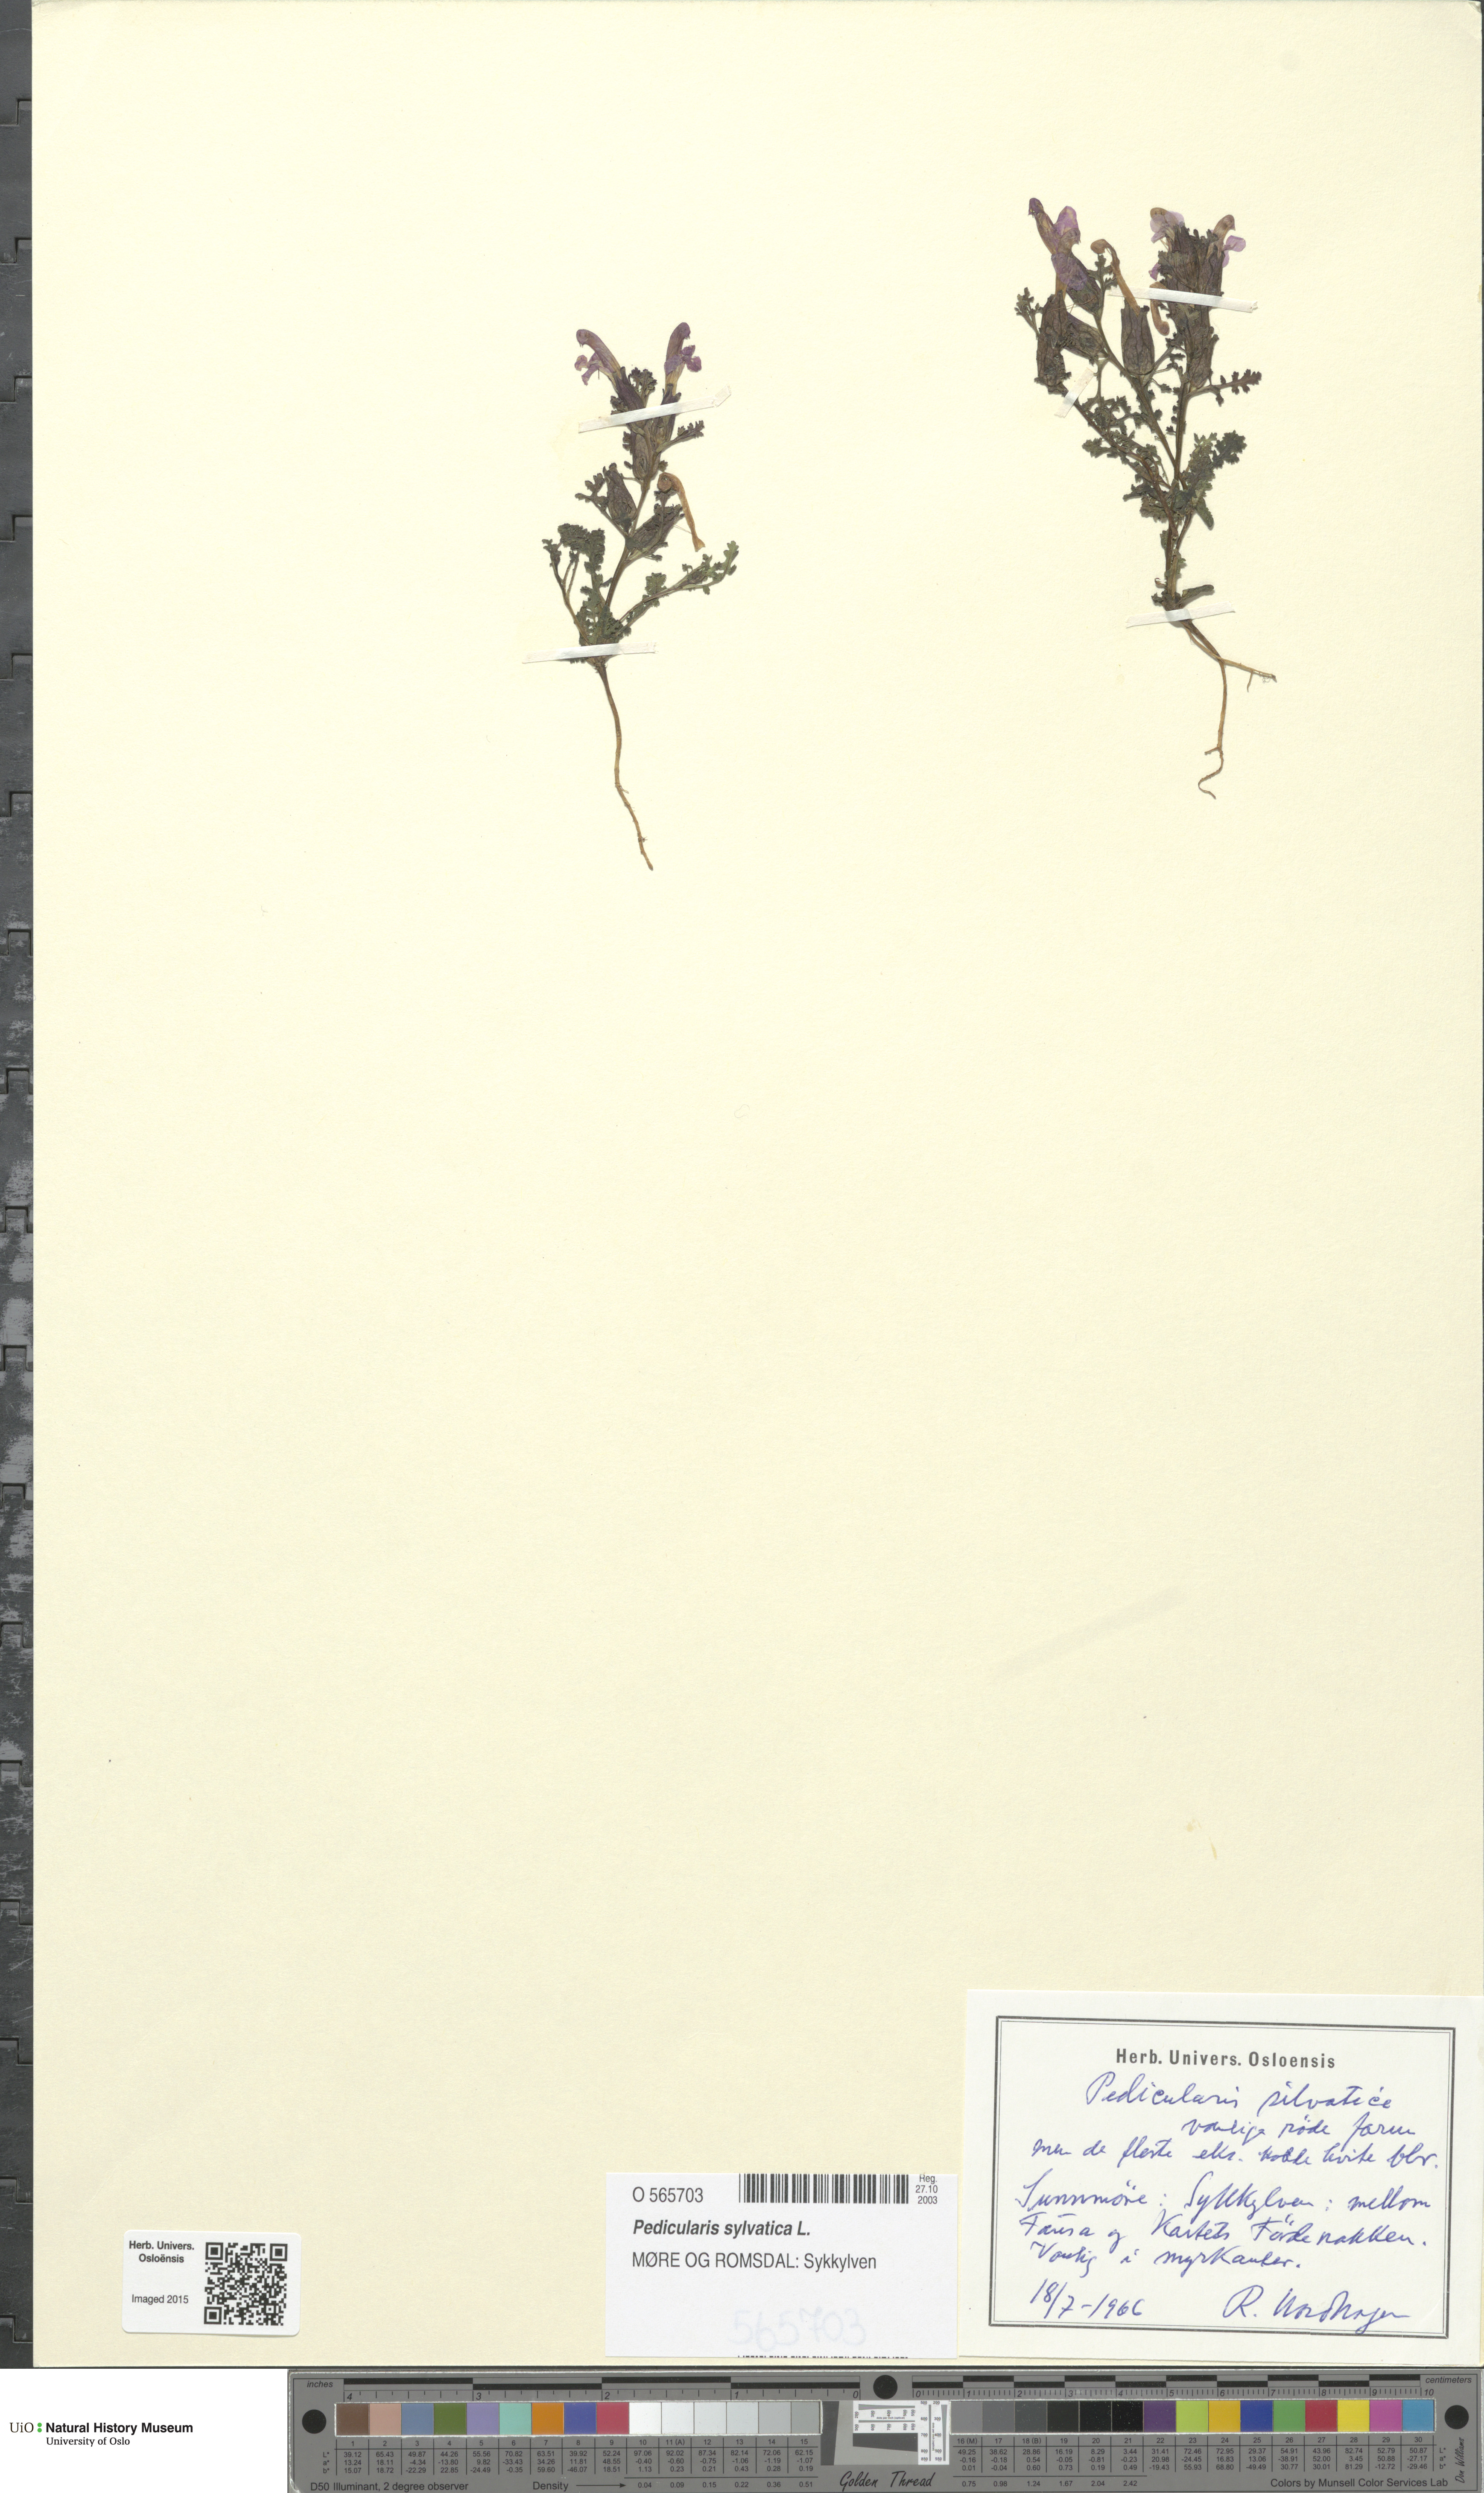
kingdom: Plantae
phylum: Tracheophyta
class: Magnoliopsida
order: Lamiales
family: Orobanchaceae
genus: Pedicularis
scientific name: Pedicularis sylvatica
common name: Lousewort
